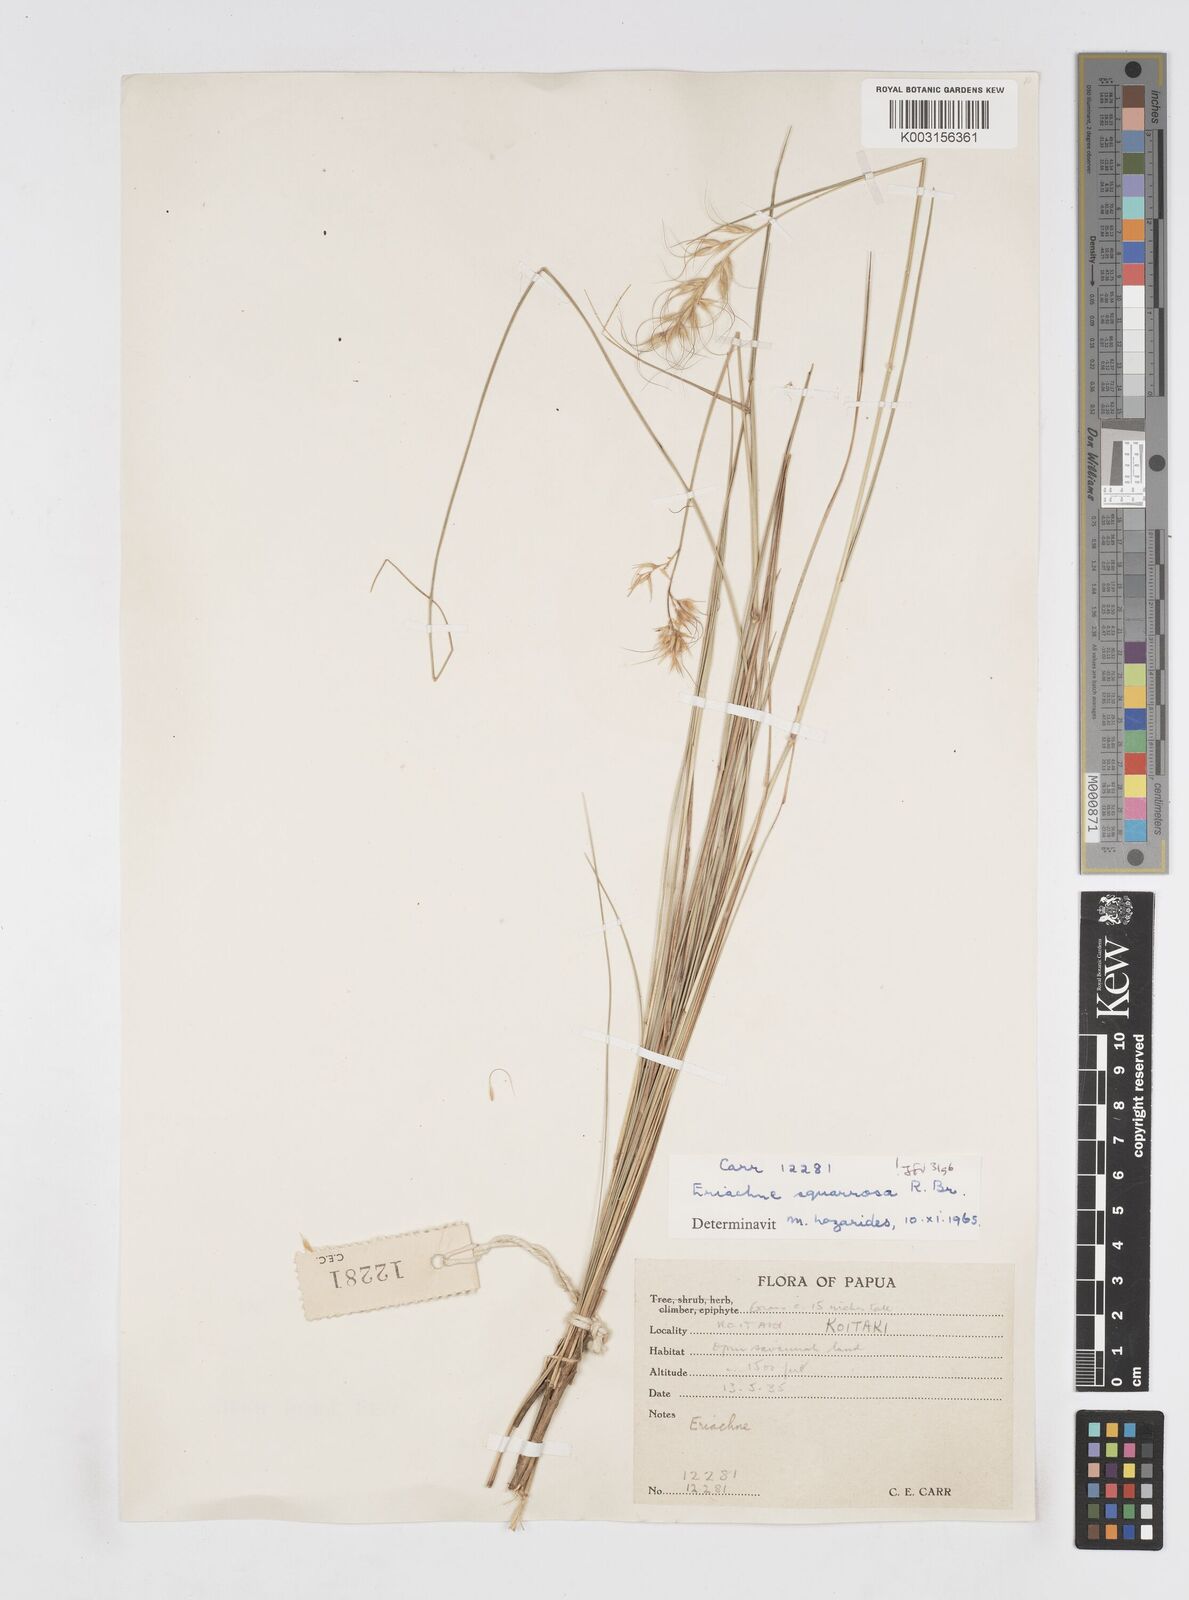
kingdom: Plantae
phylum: Tracheophyta
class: Liliopsida
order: Poales
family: Poaceae
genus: Eriachne
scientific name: Eriachne squarrosa
